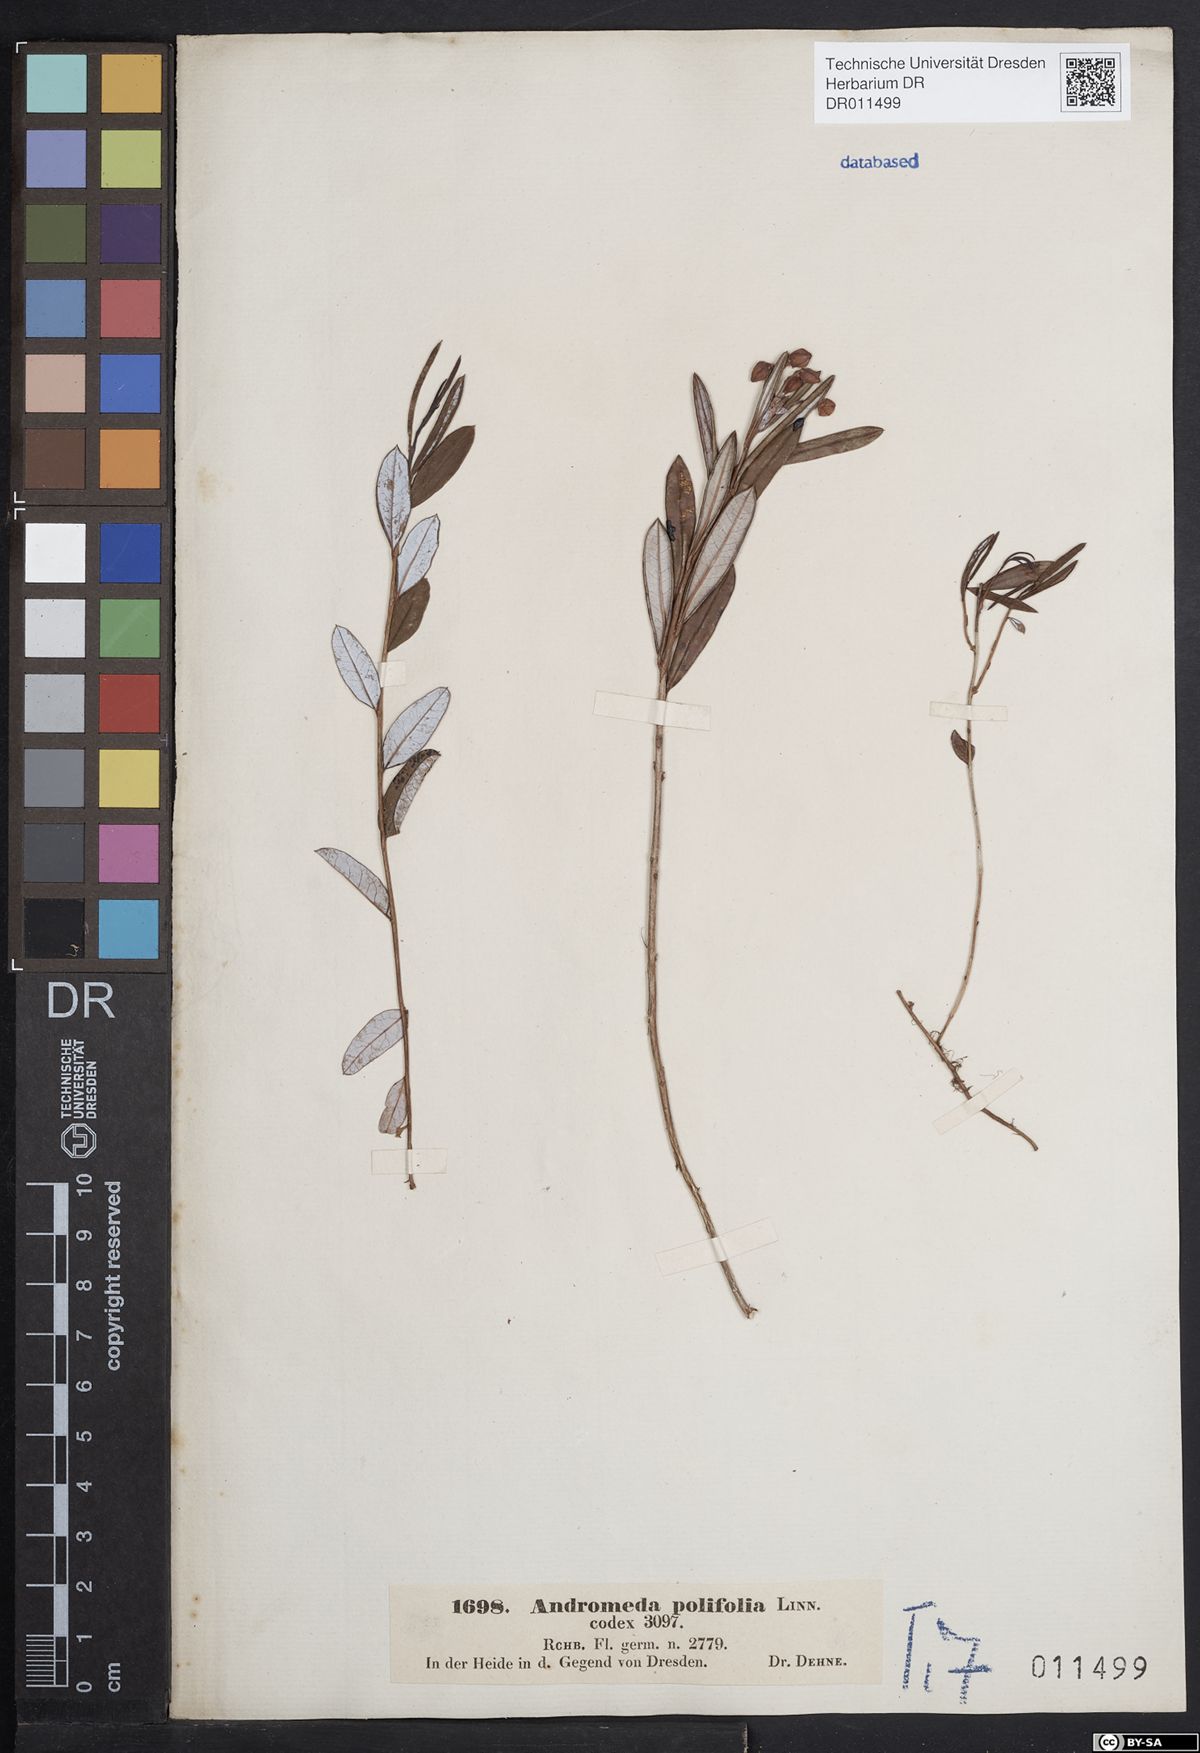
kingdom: Plantae
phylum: Tracheophyta
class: Magnoliopsida
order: Ericales
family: Ericaceae
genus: Andromeda
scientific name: Andromeda polifolia
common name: Bog-rosemary
